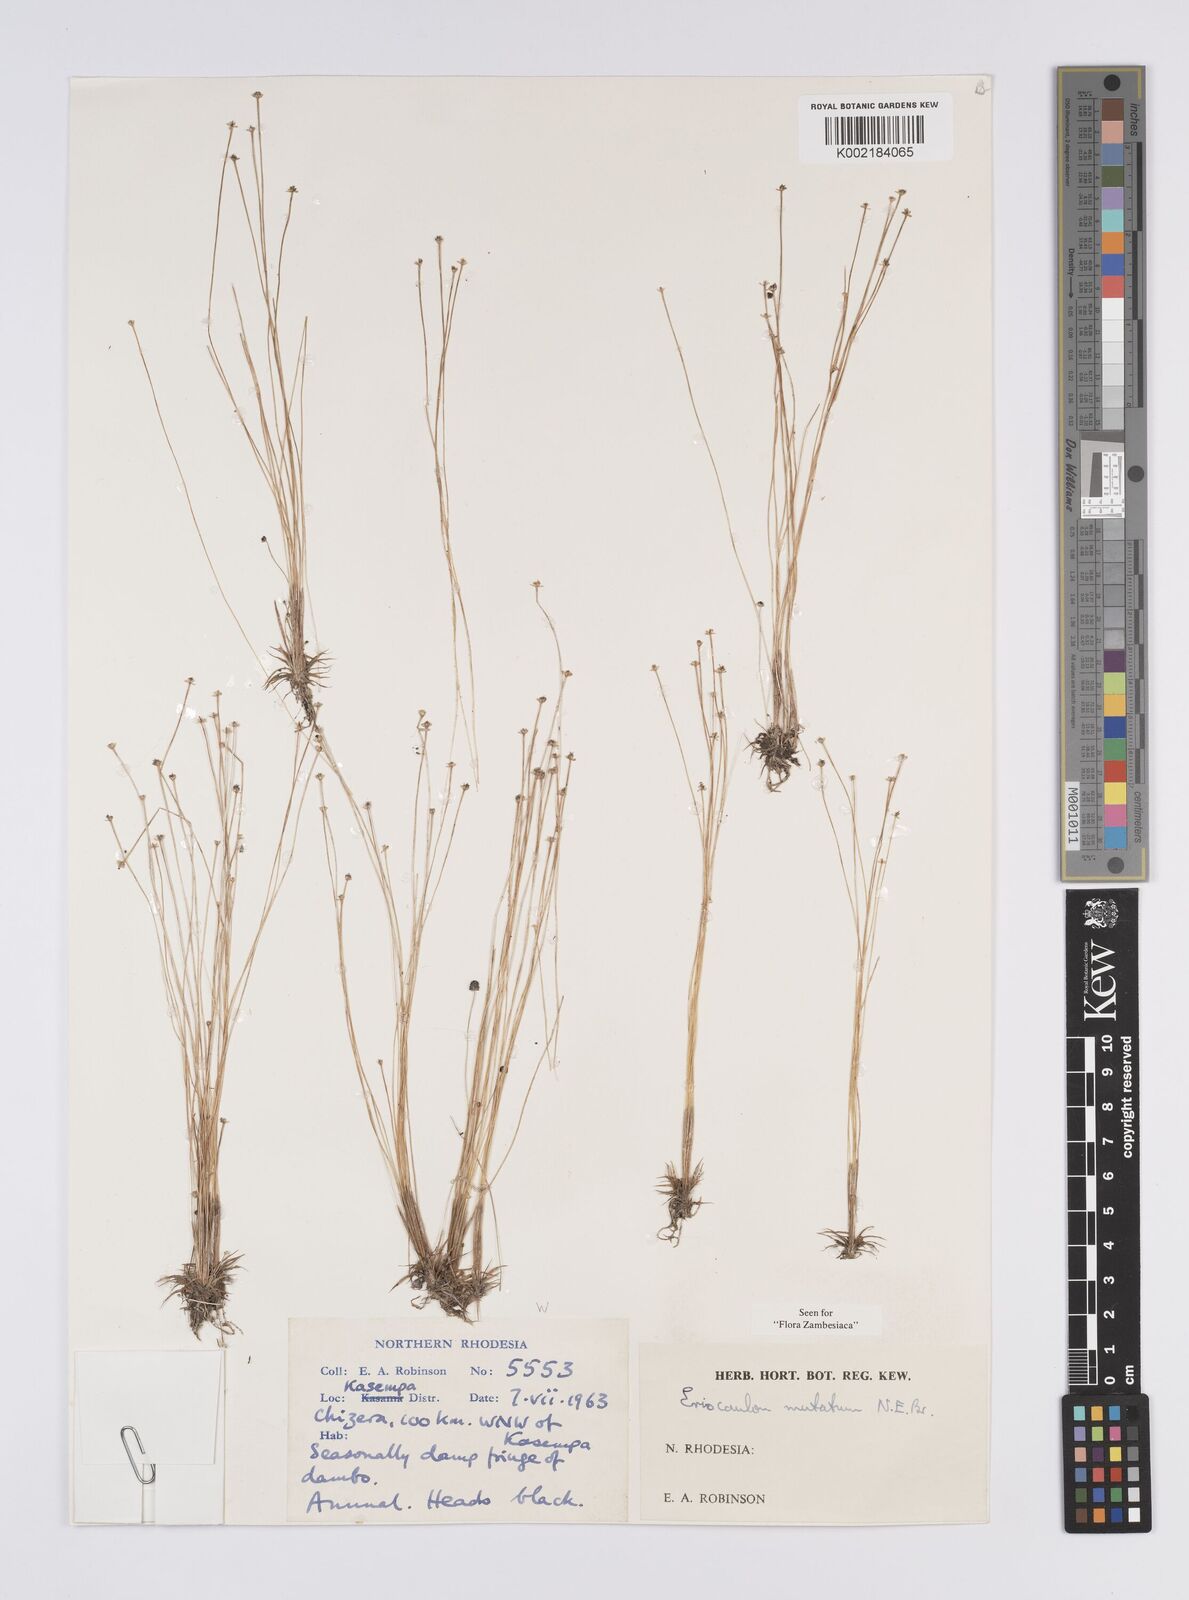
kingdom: Plantae
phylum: Tracheophyta
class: Liliopsida
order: Poales
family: Eriocaulaceae
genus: Eriocaulon
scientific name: Eriocaulon mutatum
